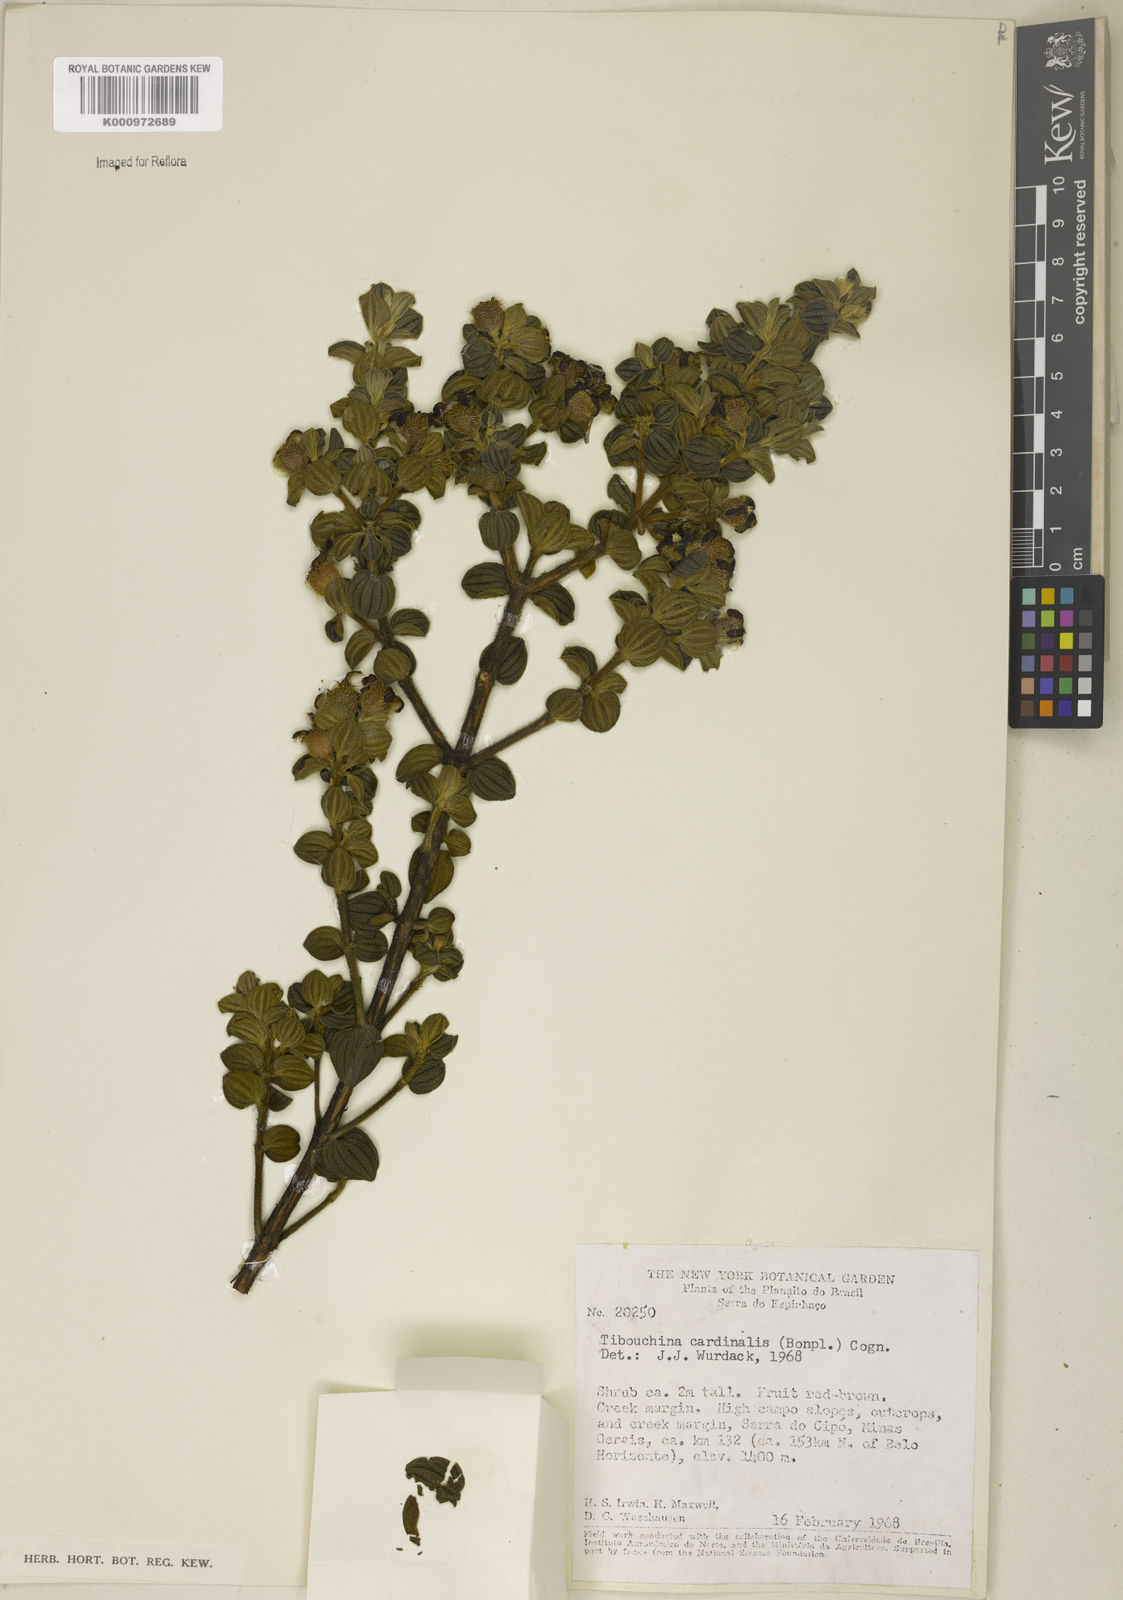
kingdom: Plantae
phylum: Tracheophyta
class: Magnoliopsida
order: Myrtales
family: Melastomataceae
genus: Chaetogastra
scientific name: Chaetogastra cardinalis
